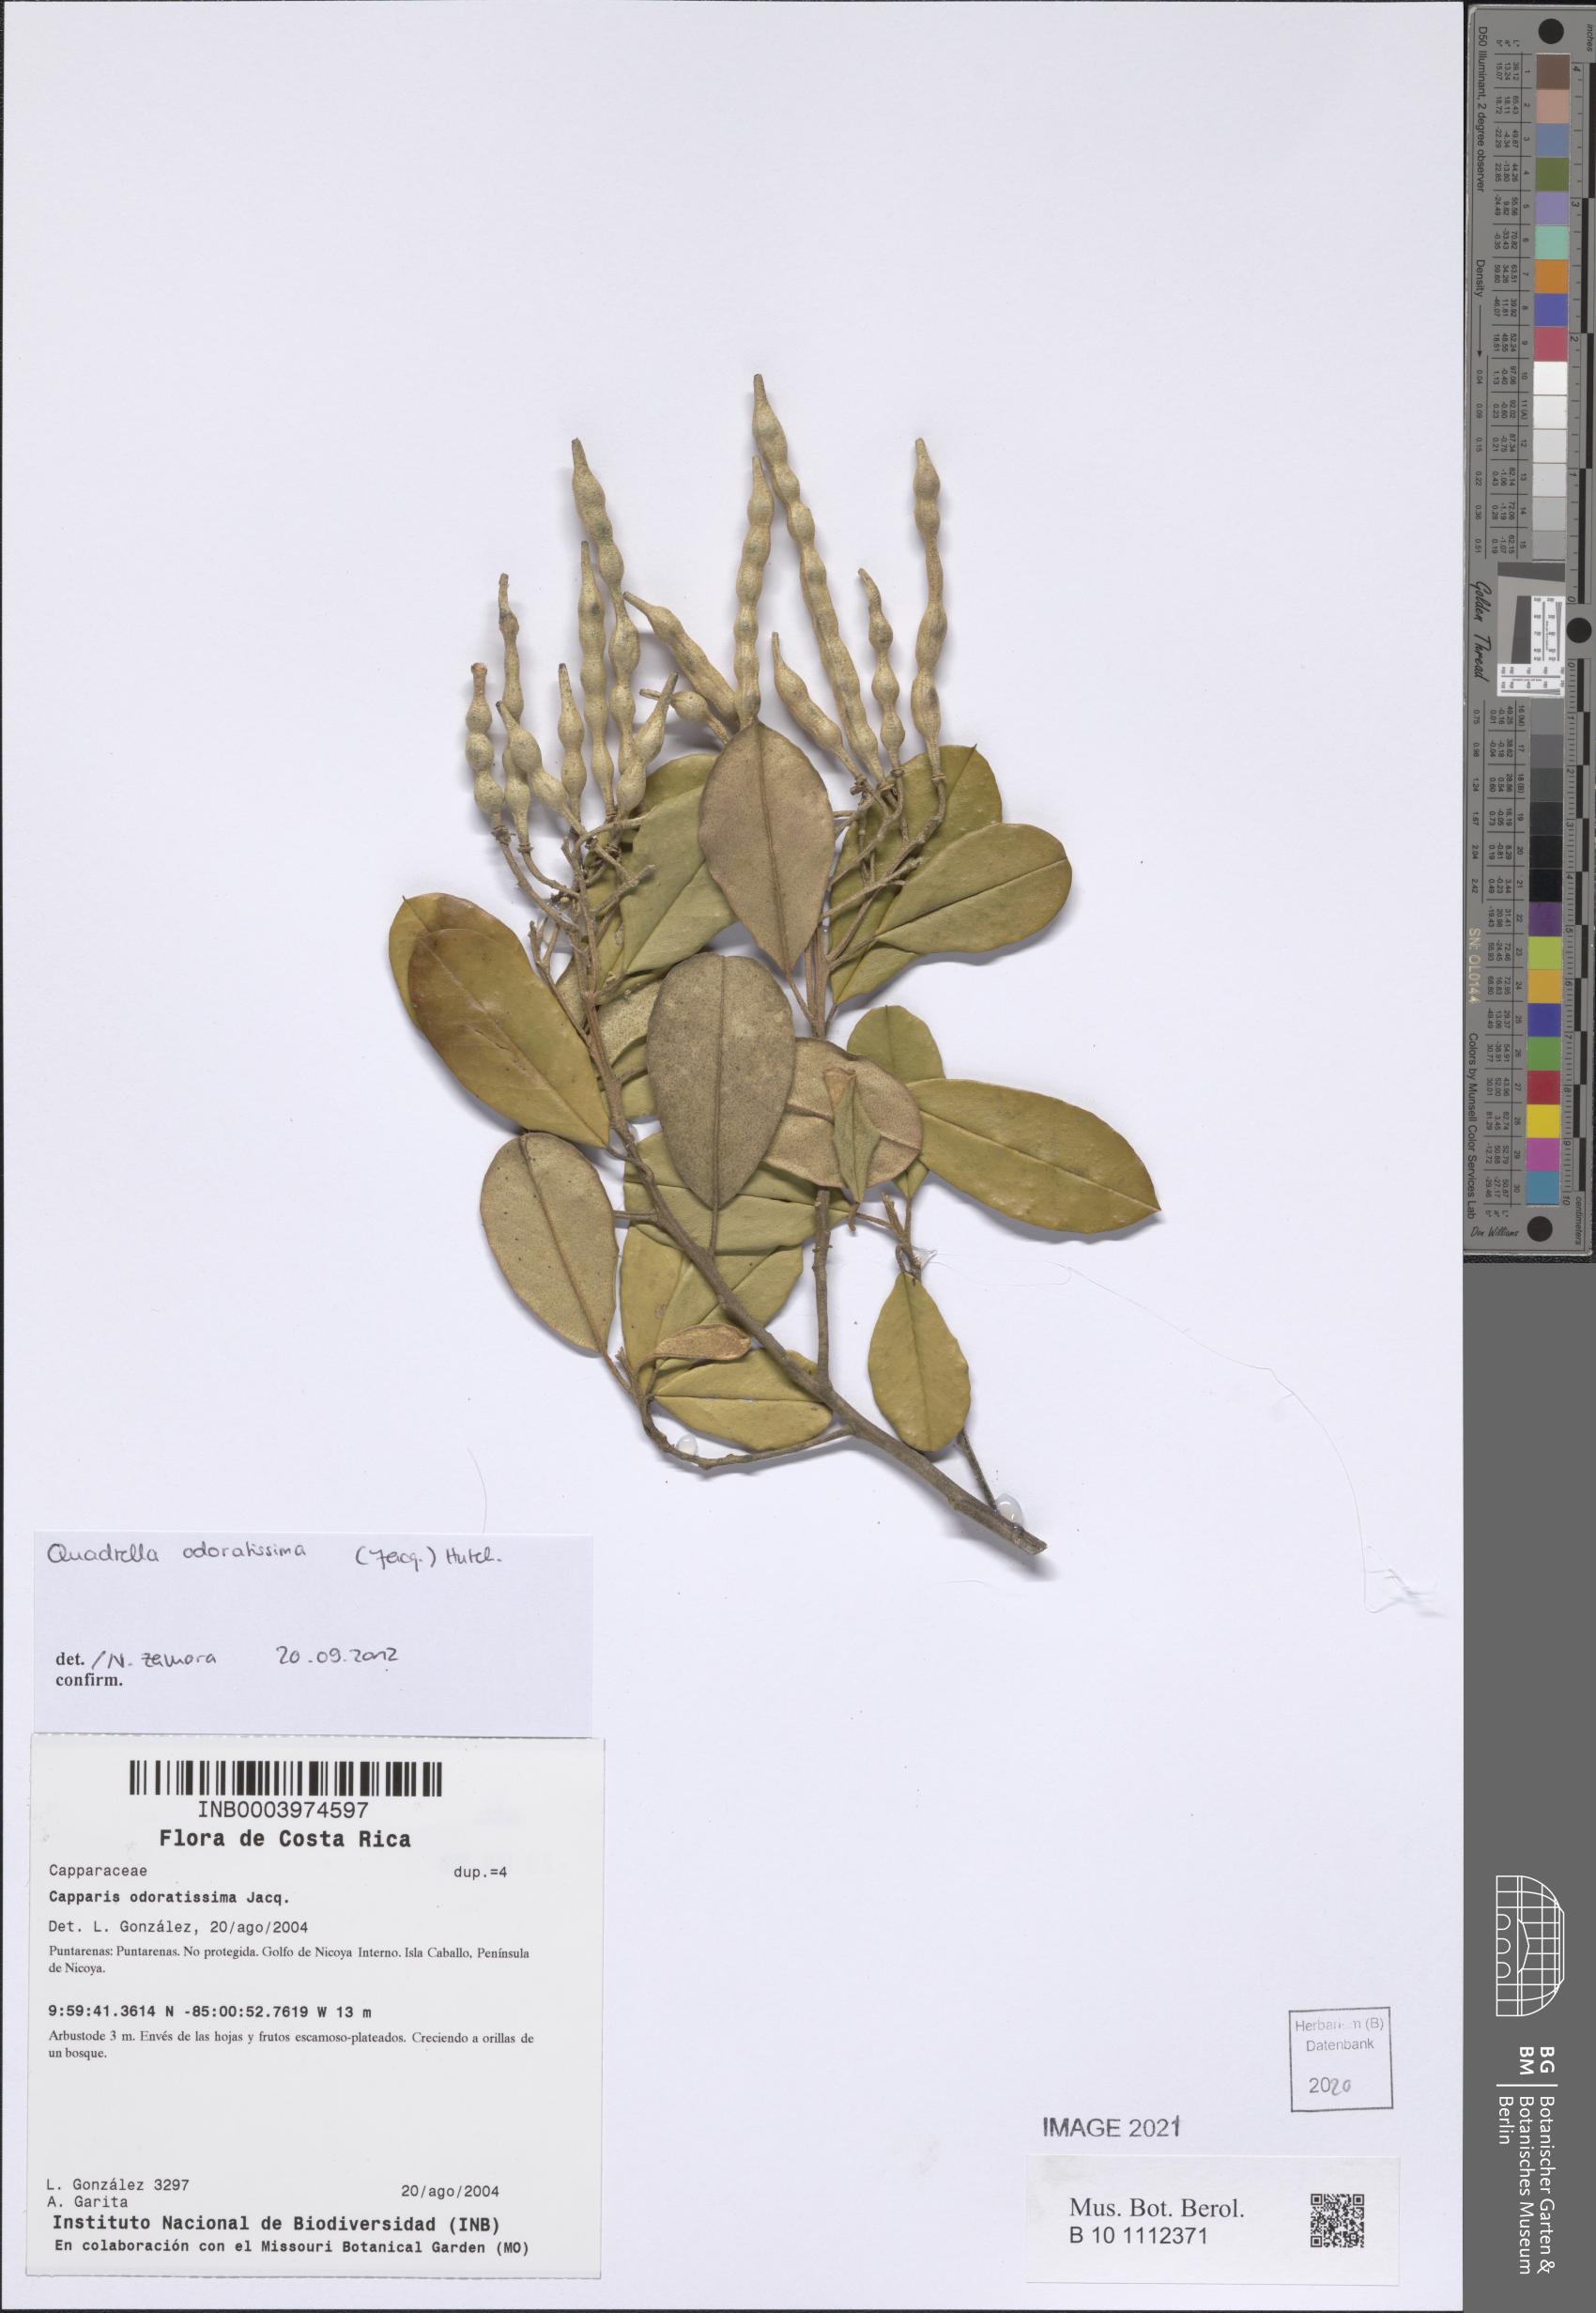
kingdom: Plantae
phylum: Tracheophyta
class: Magnoliopsida
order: Brassicales
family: Capparaceae
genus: Quadrella
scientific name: Quadrella odoratissima
